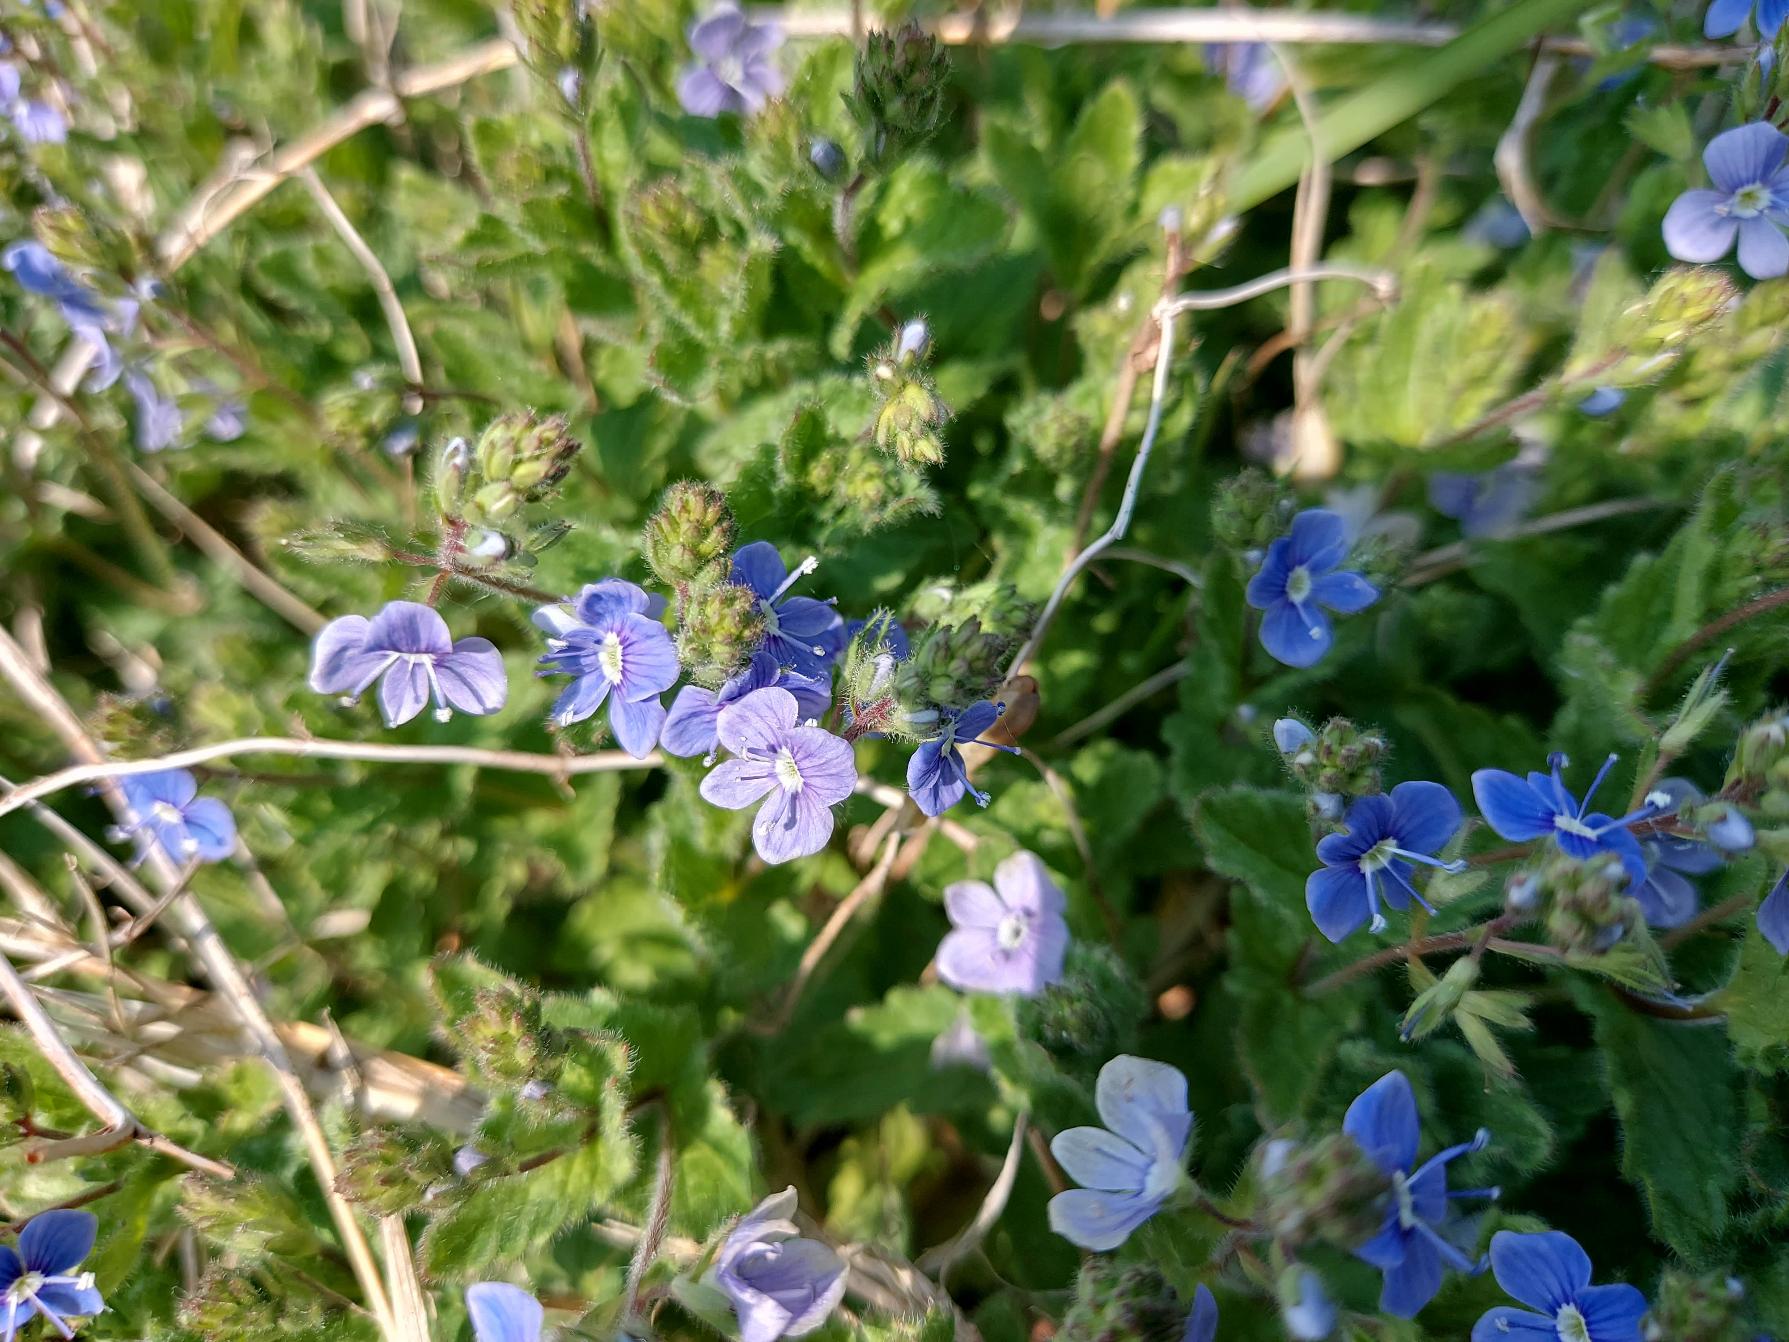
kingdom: Plantae
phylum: Tracheophyta
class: Magnoliopsida
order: Lamiales
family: Plantaginaceae
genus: Veronica
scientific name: Veronica chamaedrys
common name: Tveskægget ærenpris
